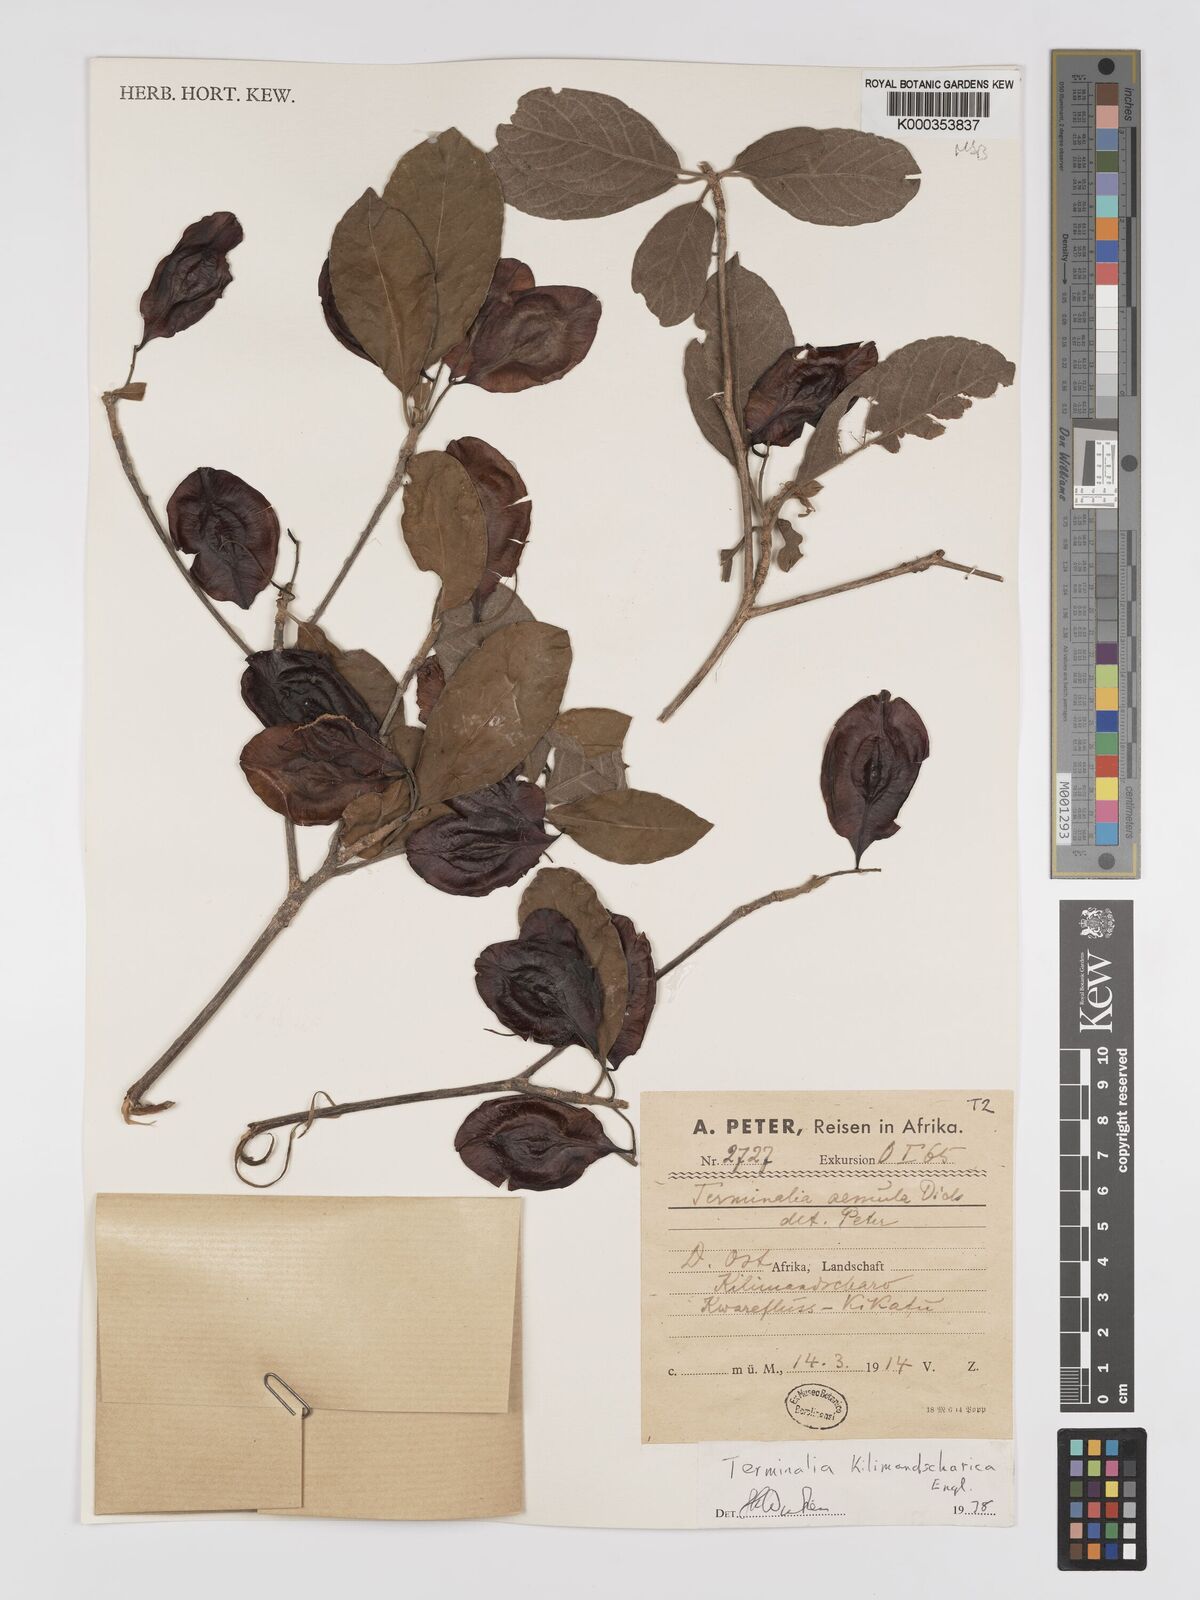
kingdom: Plantae
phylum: Tracheophyta
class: Magnoliopsida
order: Myrtales
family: Combretaceae
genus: Terminalia
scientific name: Terminalia kilimandscharica
